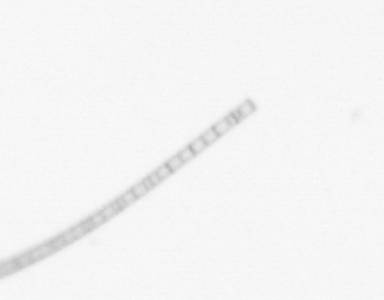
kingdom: Chromista
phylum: Ochrophyta
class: Bacillariophyceae
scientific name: Bacillariophyceae
